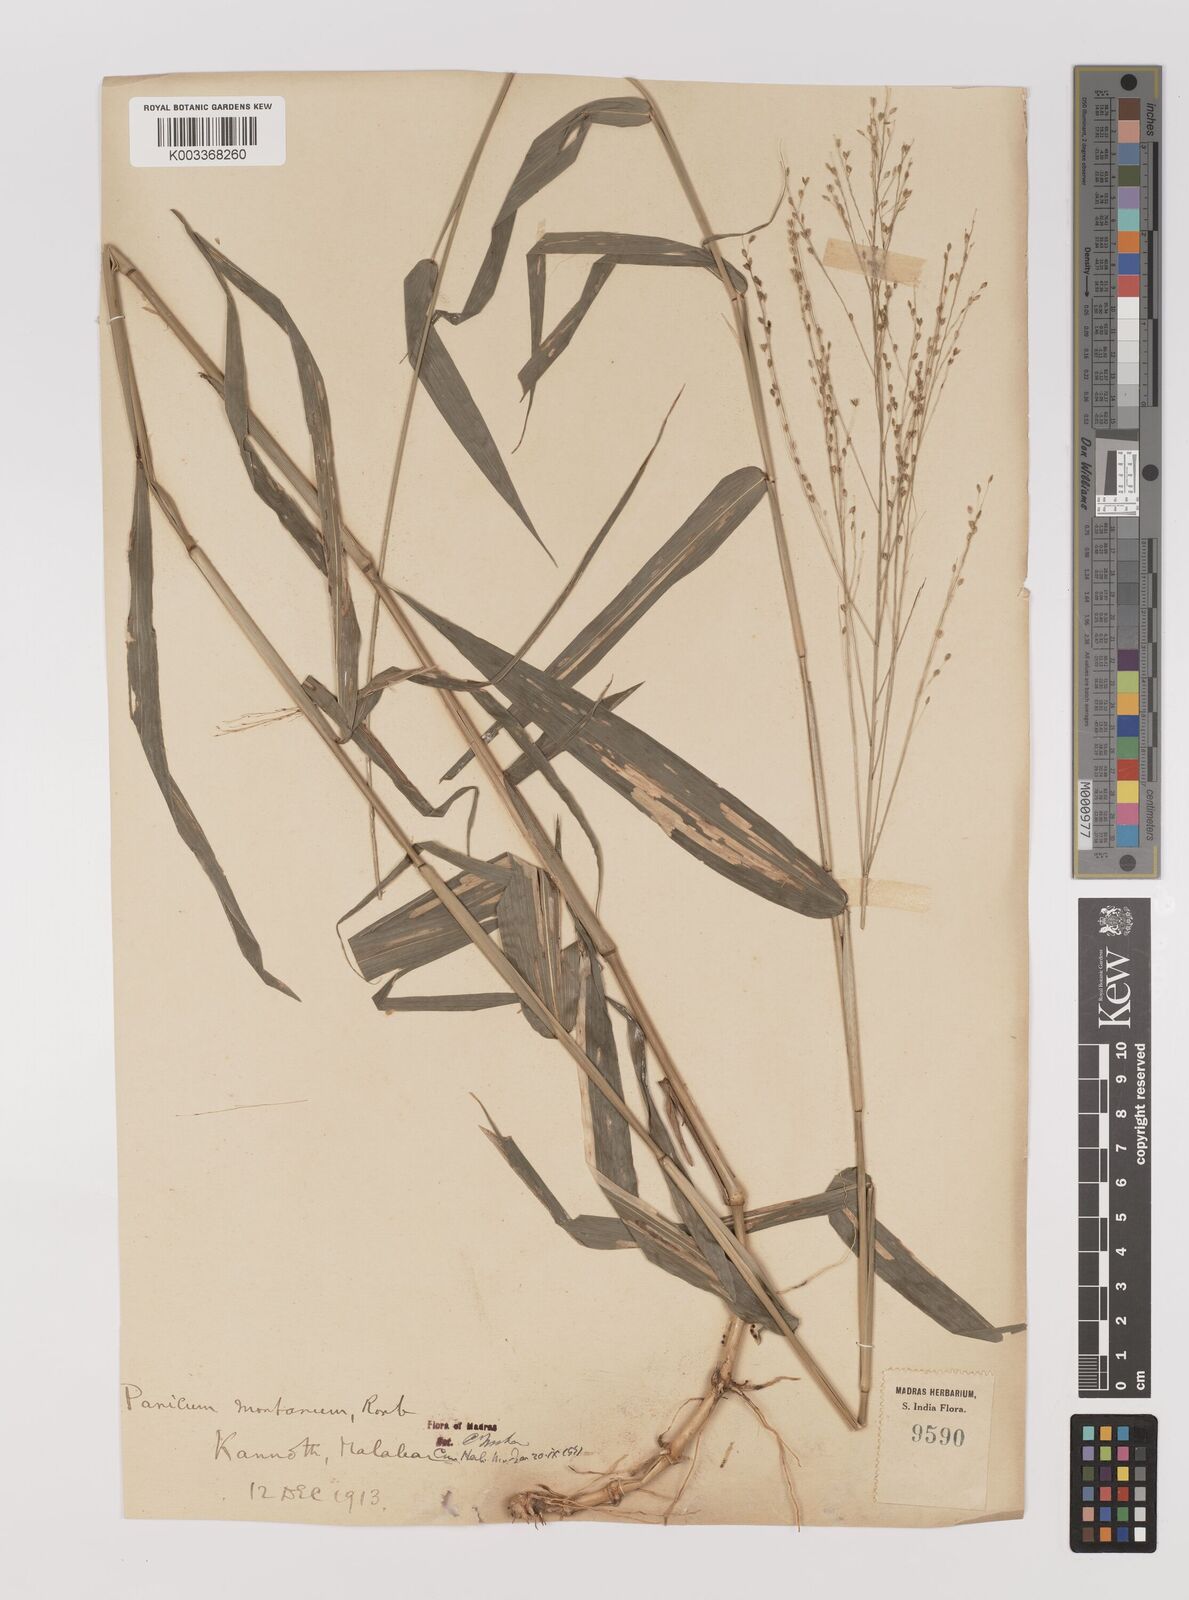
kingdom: Plantae
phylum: Tracheophyta
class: Liliopsida
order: Poales
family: Poaceae
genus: Panicum
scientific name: Panicum notatum
